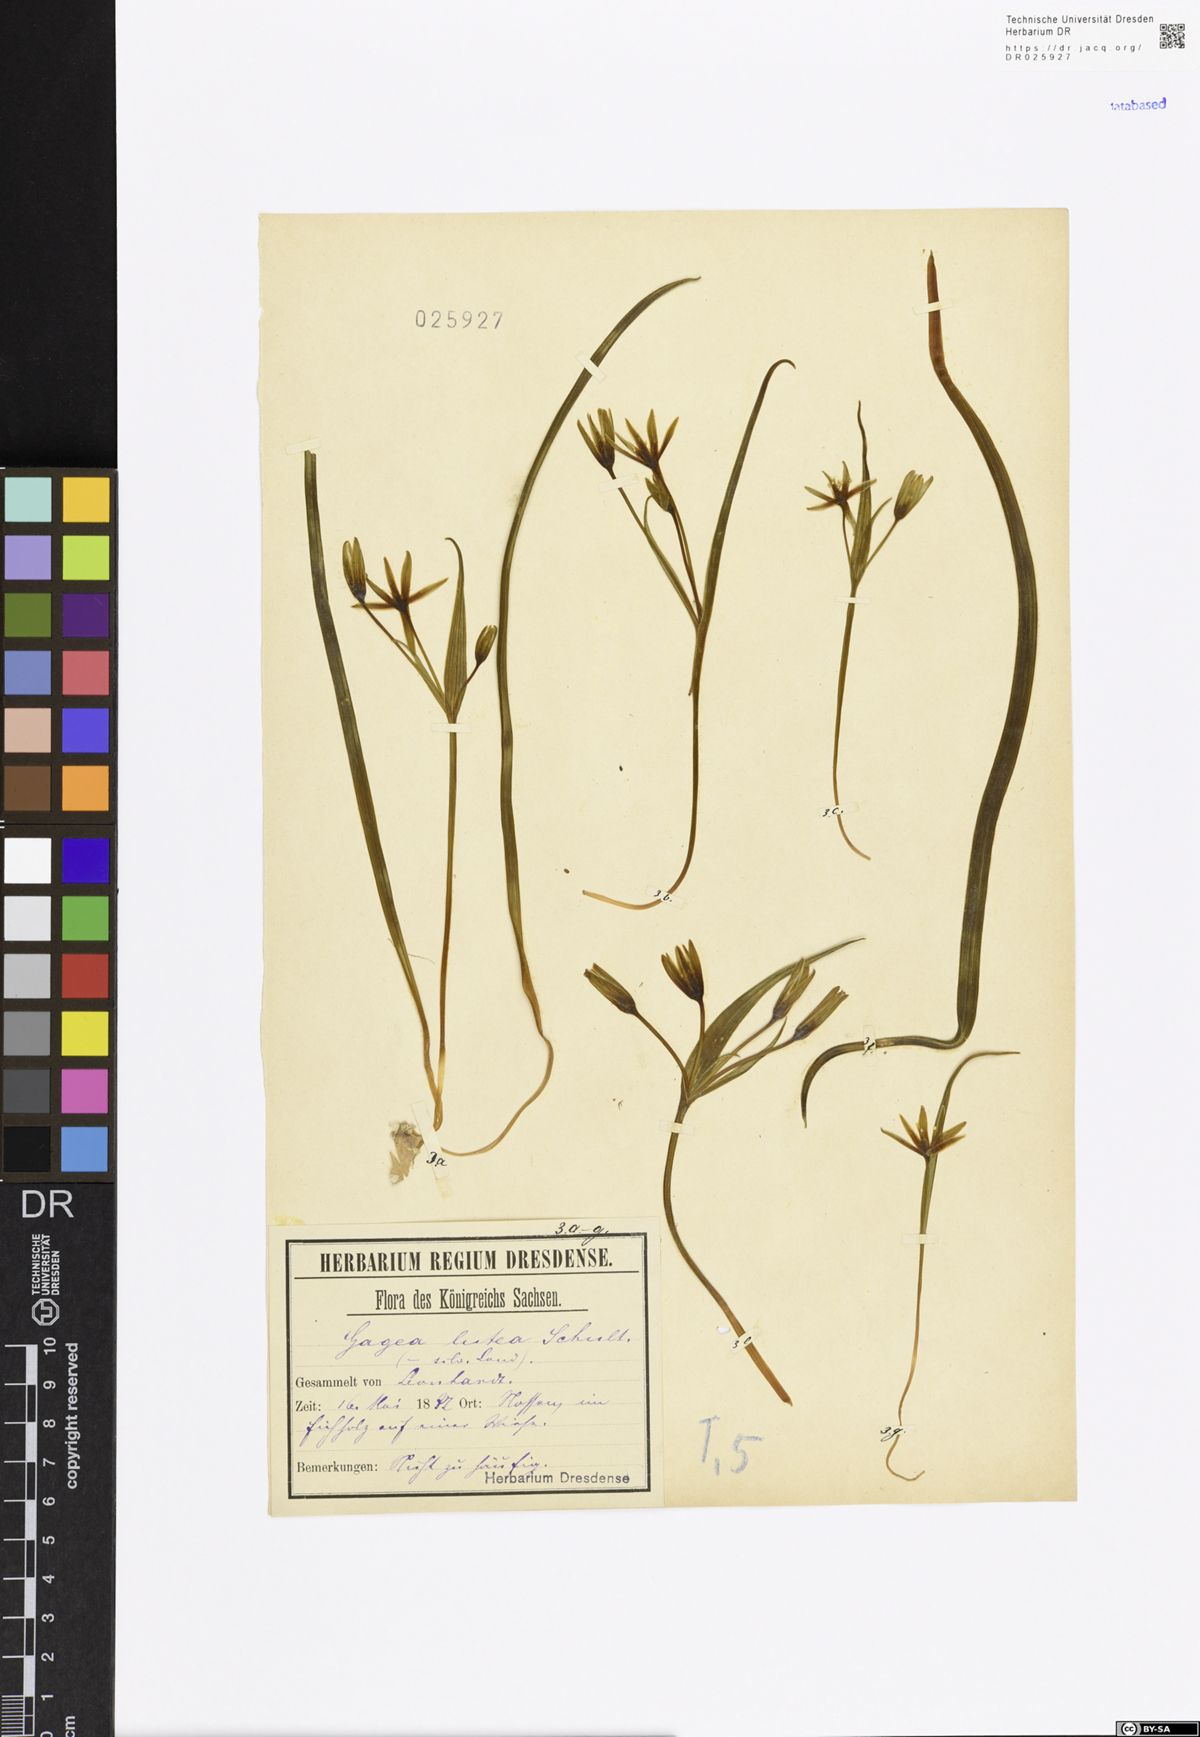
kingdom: Plantae
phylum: Tracheophyta
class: Liliopsida
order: Liliales
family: Liliaceae
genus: Gagea
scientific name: Gagea lutea
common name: Yellow star-of-bethlehem
